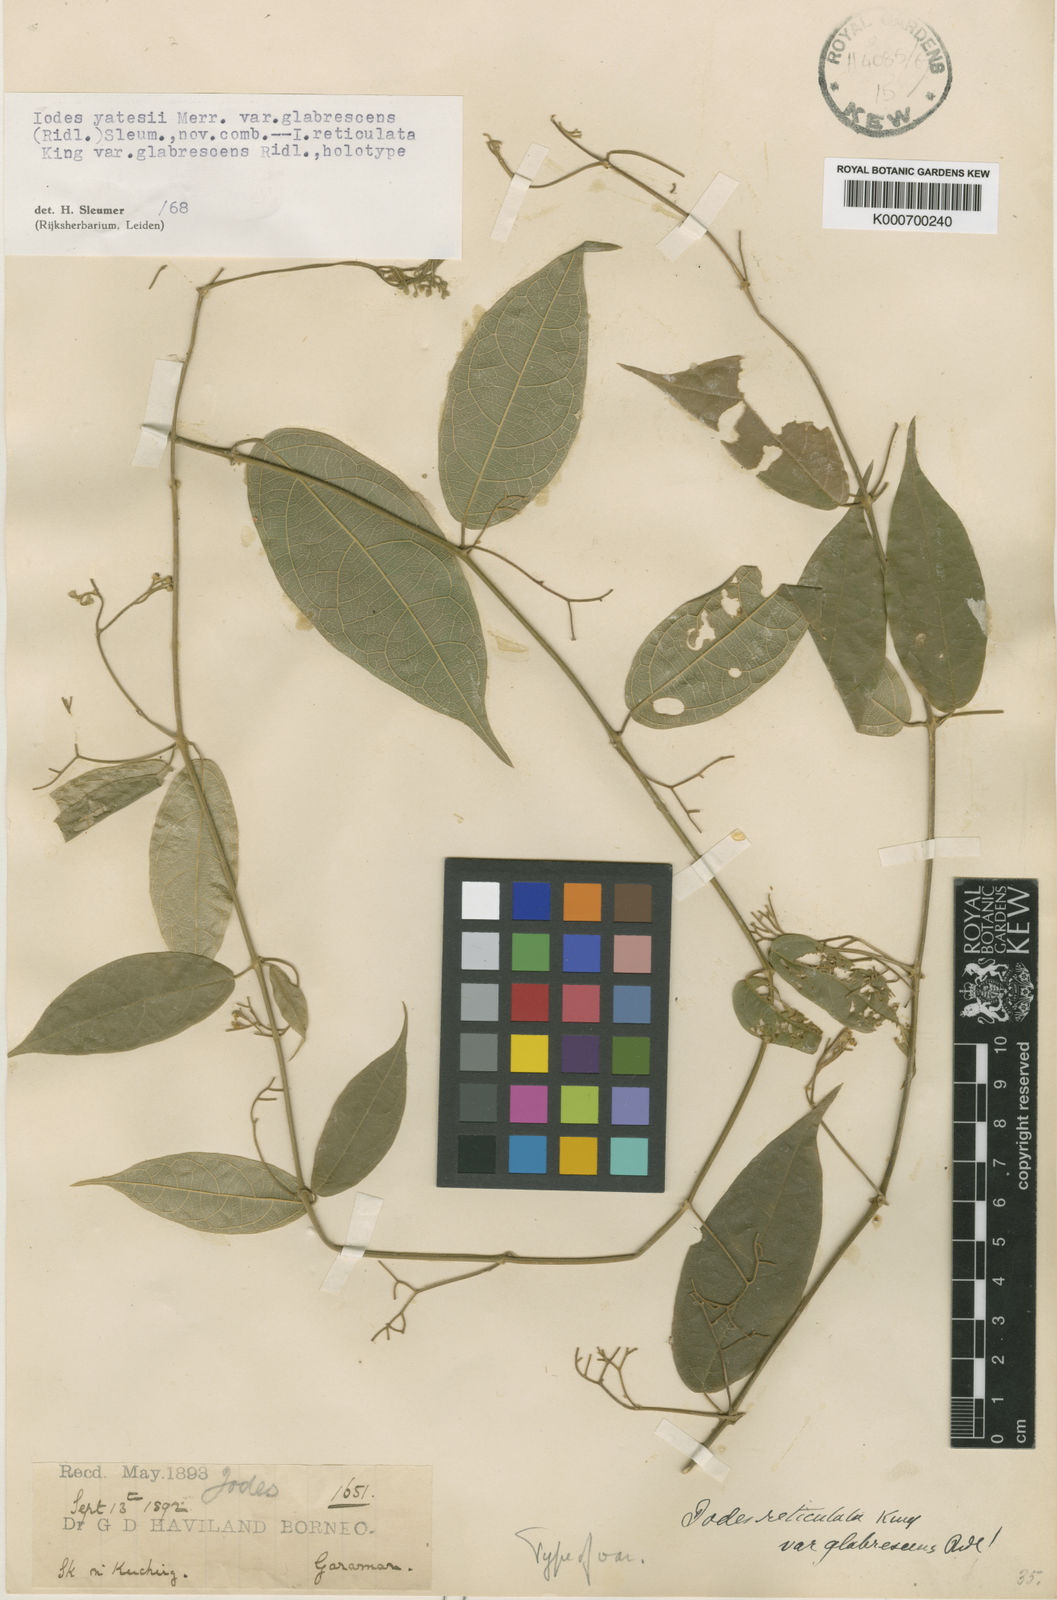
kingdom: Plantae
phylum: Tracheophyta
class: Magnoliopsida
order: Icacinales
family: Icacinaceae
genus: Iodes
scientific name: Iodes yatesii
